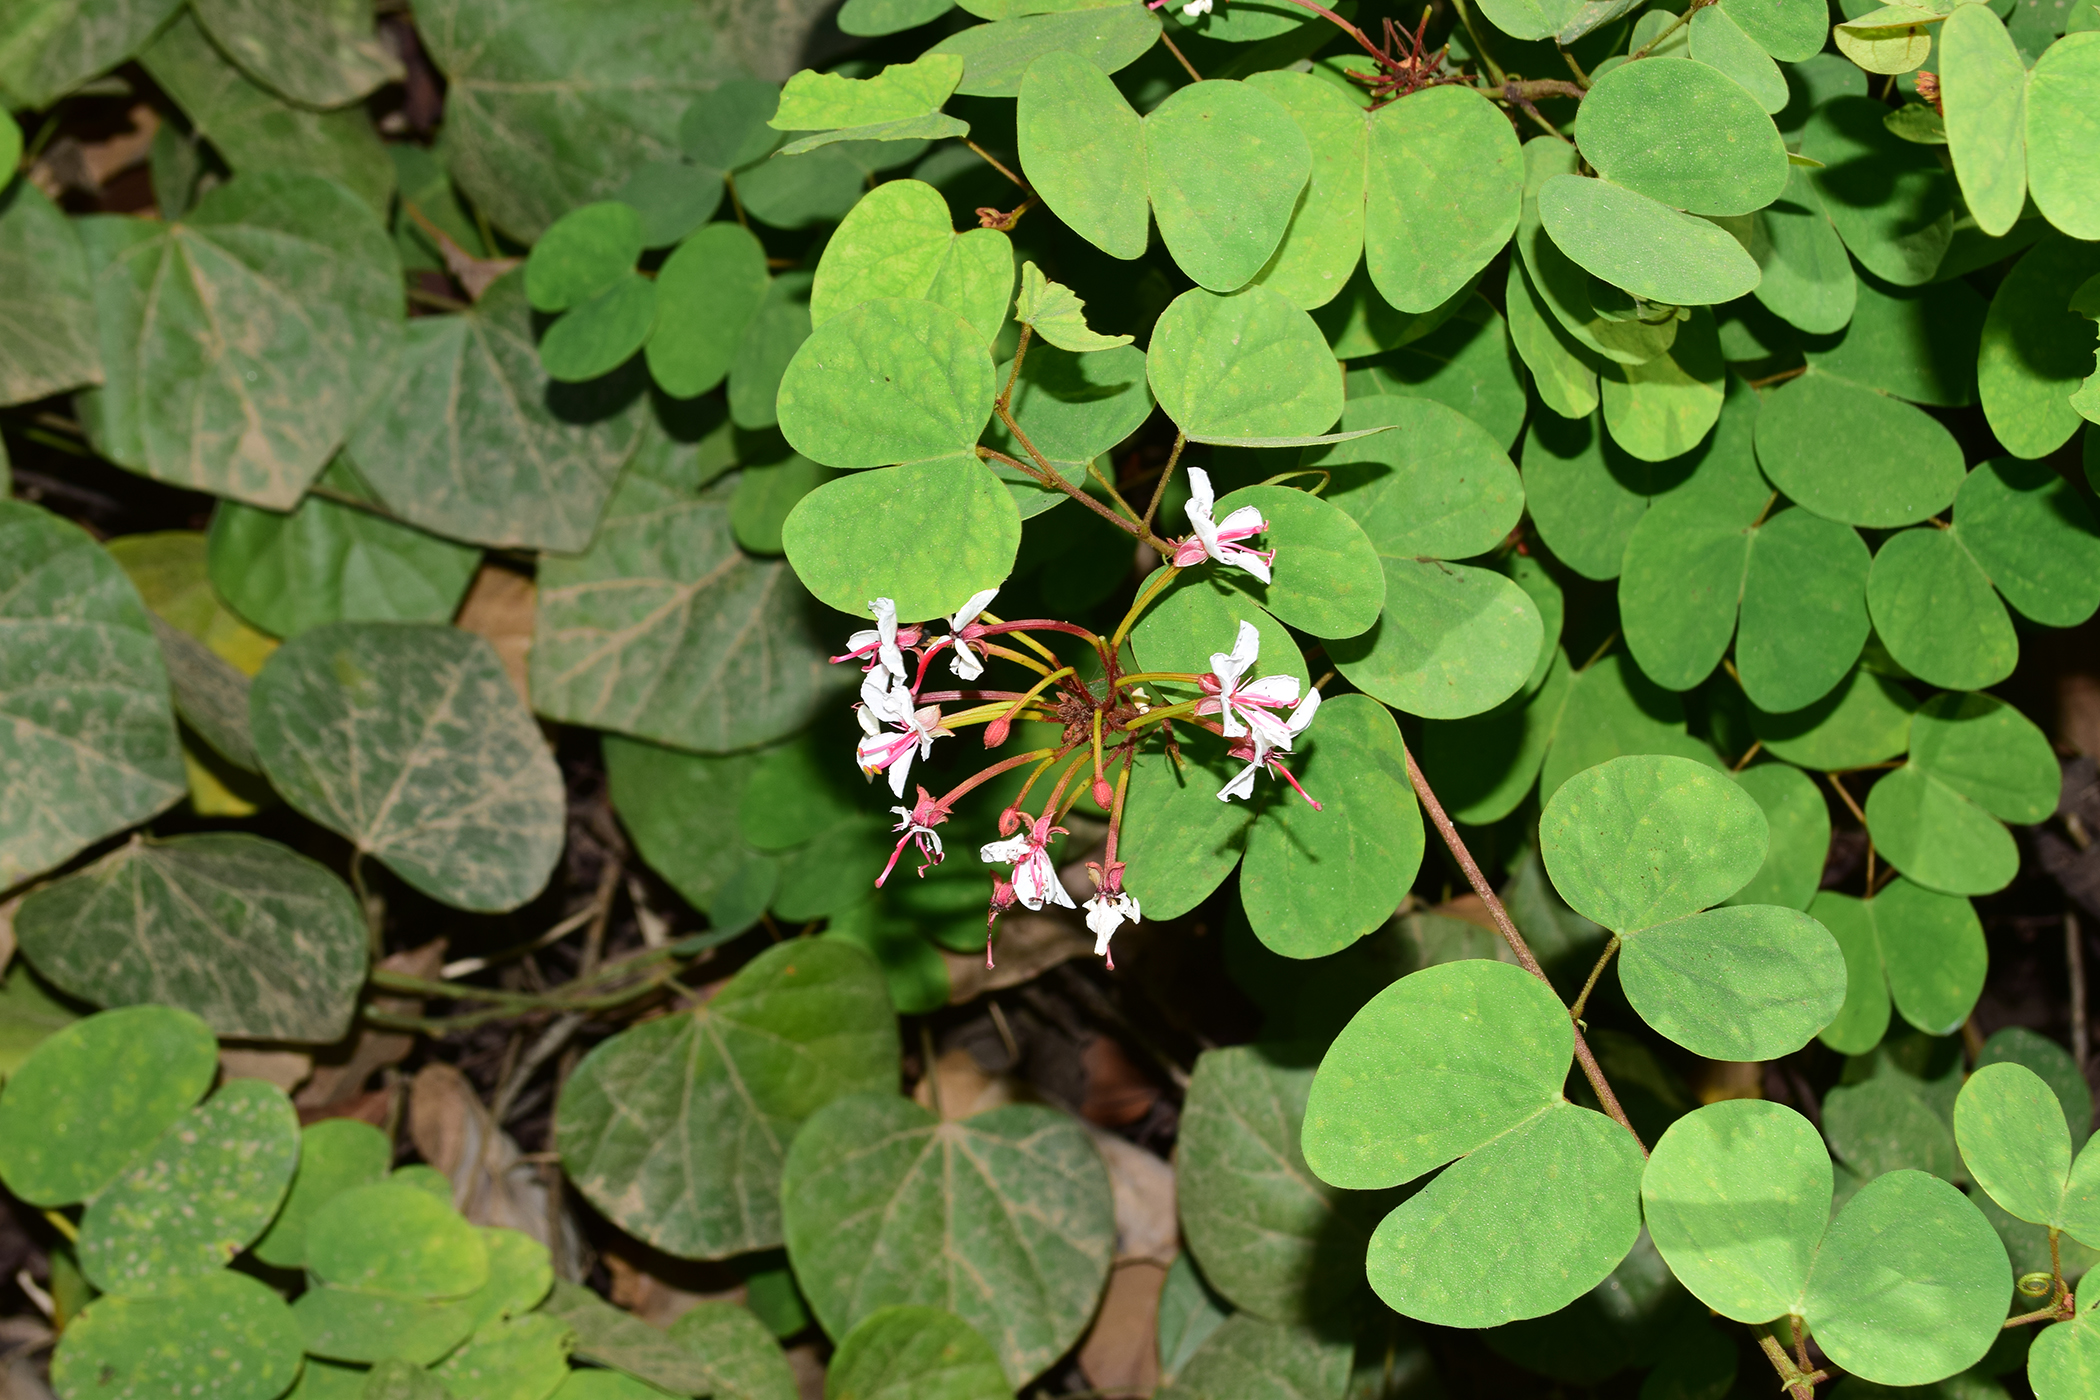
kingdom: Plantae
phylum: Tracheophyta
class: Magnoliopsida
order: Fabales
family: Fabaceae
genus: Cheniella
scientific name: Cheniella lakhonensis
